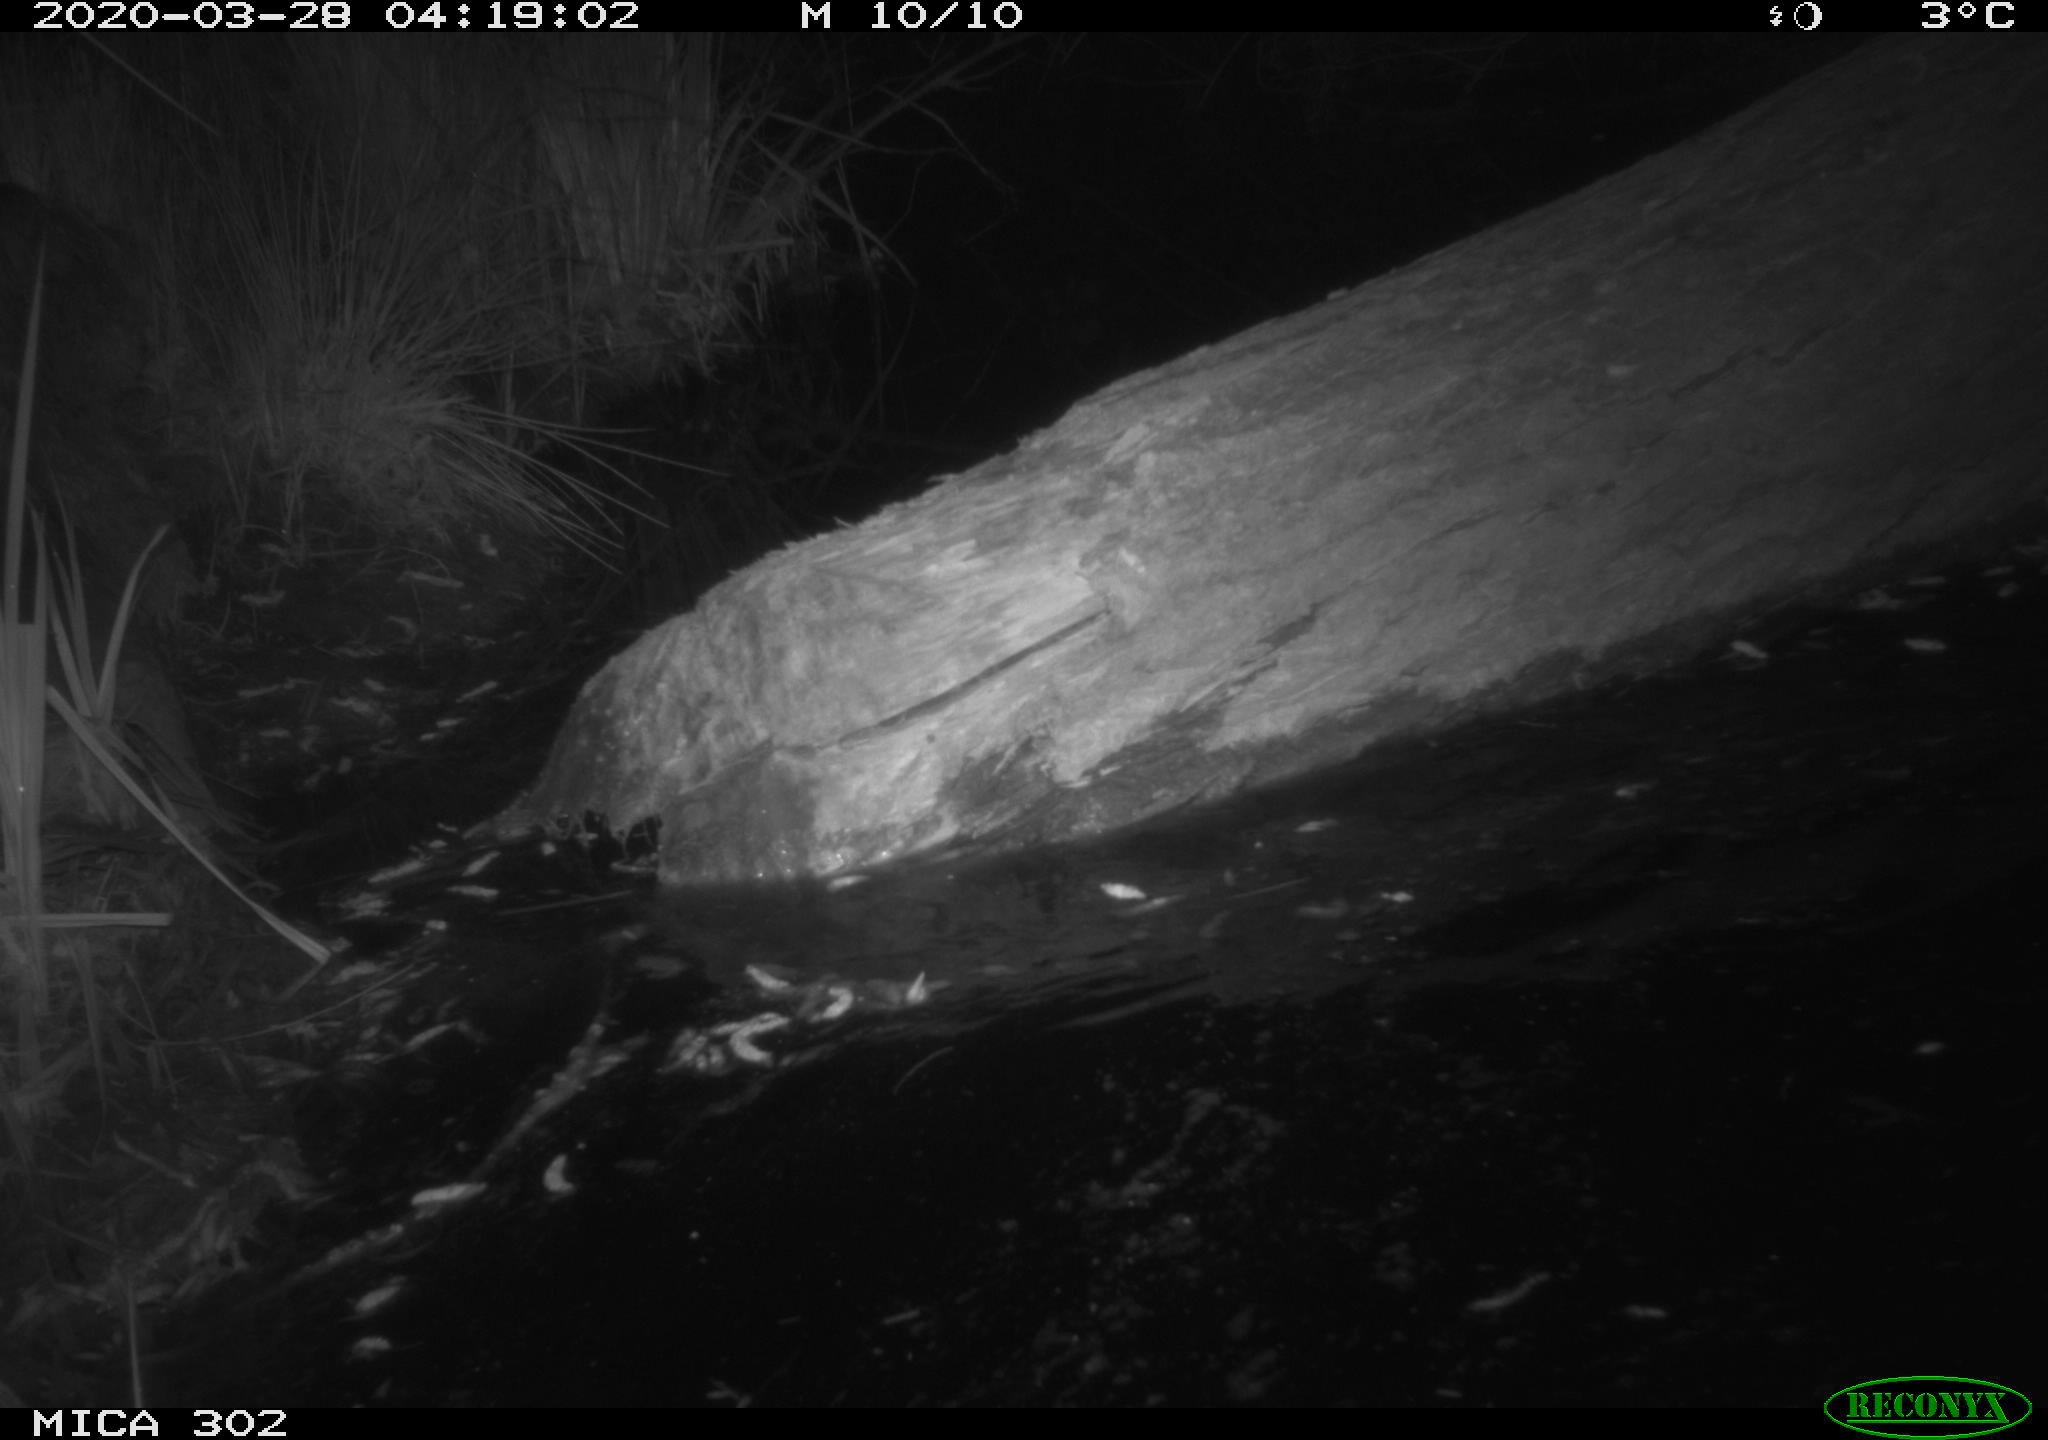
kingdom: Animalia
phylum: Chordata
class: Mammalia
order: Rodentia
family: Castoridae
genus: Castor
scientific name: Castor fiber
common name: Eurasian beaver
